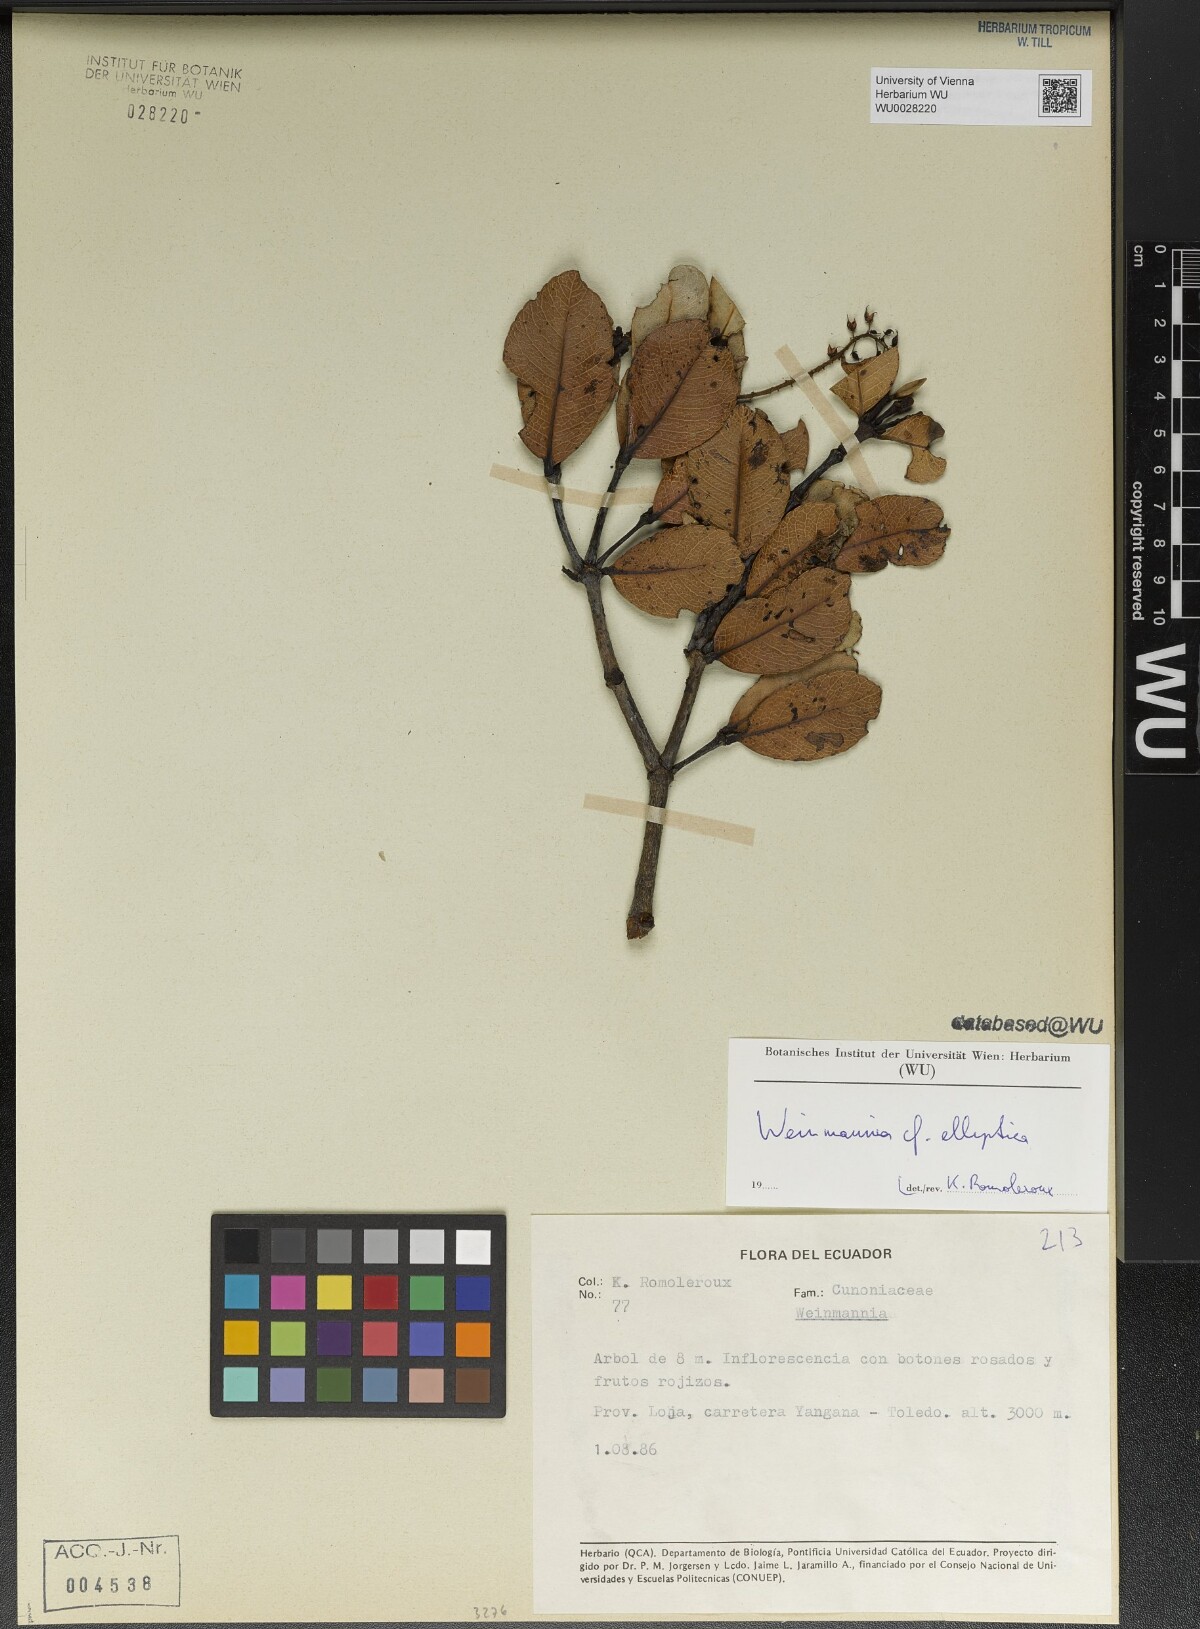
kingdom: Plantae
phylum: Tracheophyta
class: Magnoliopsida
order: Oxalidales
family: Cunoniaceae
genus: Weinmannia
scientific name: Weinmannia elliptica
